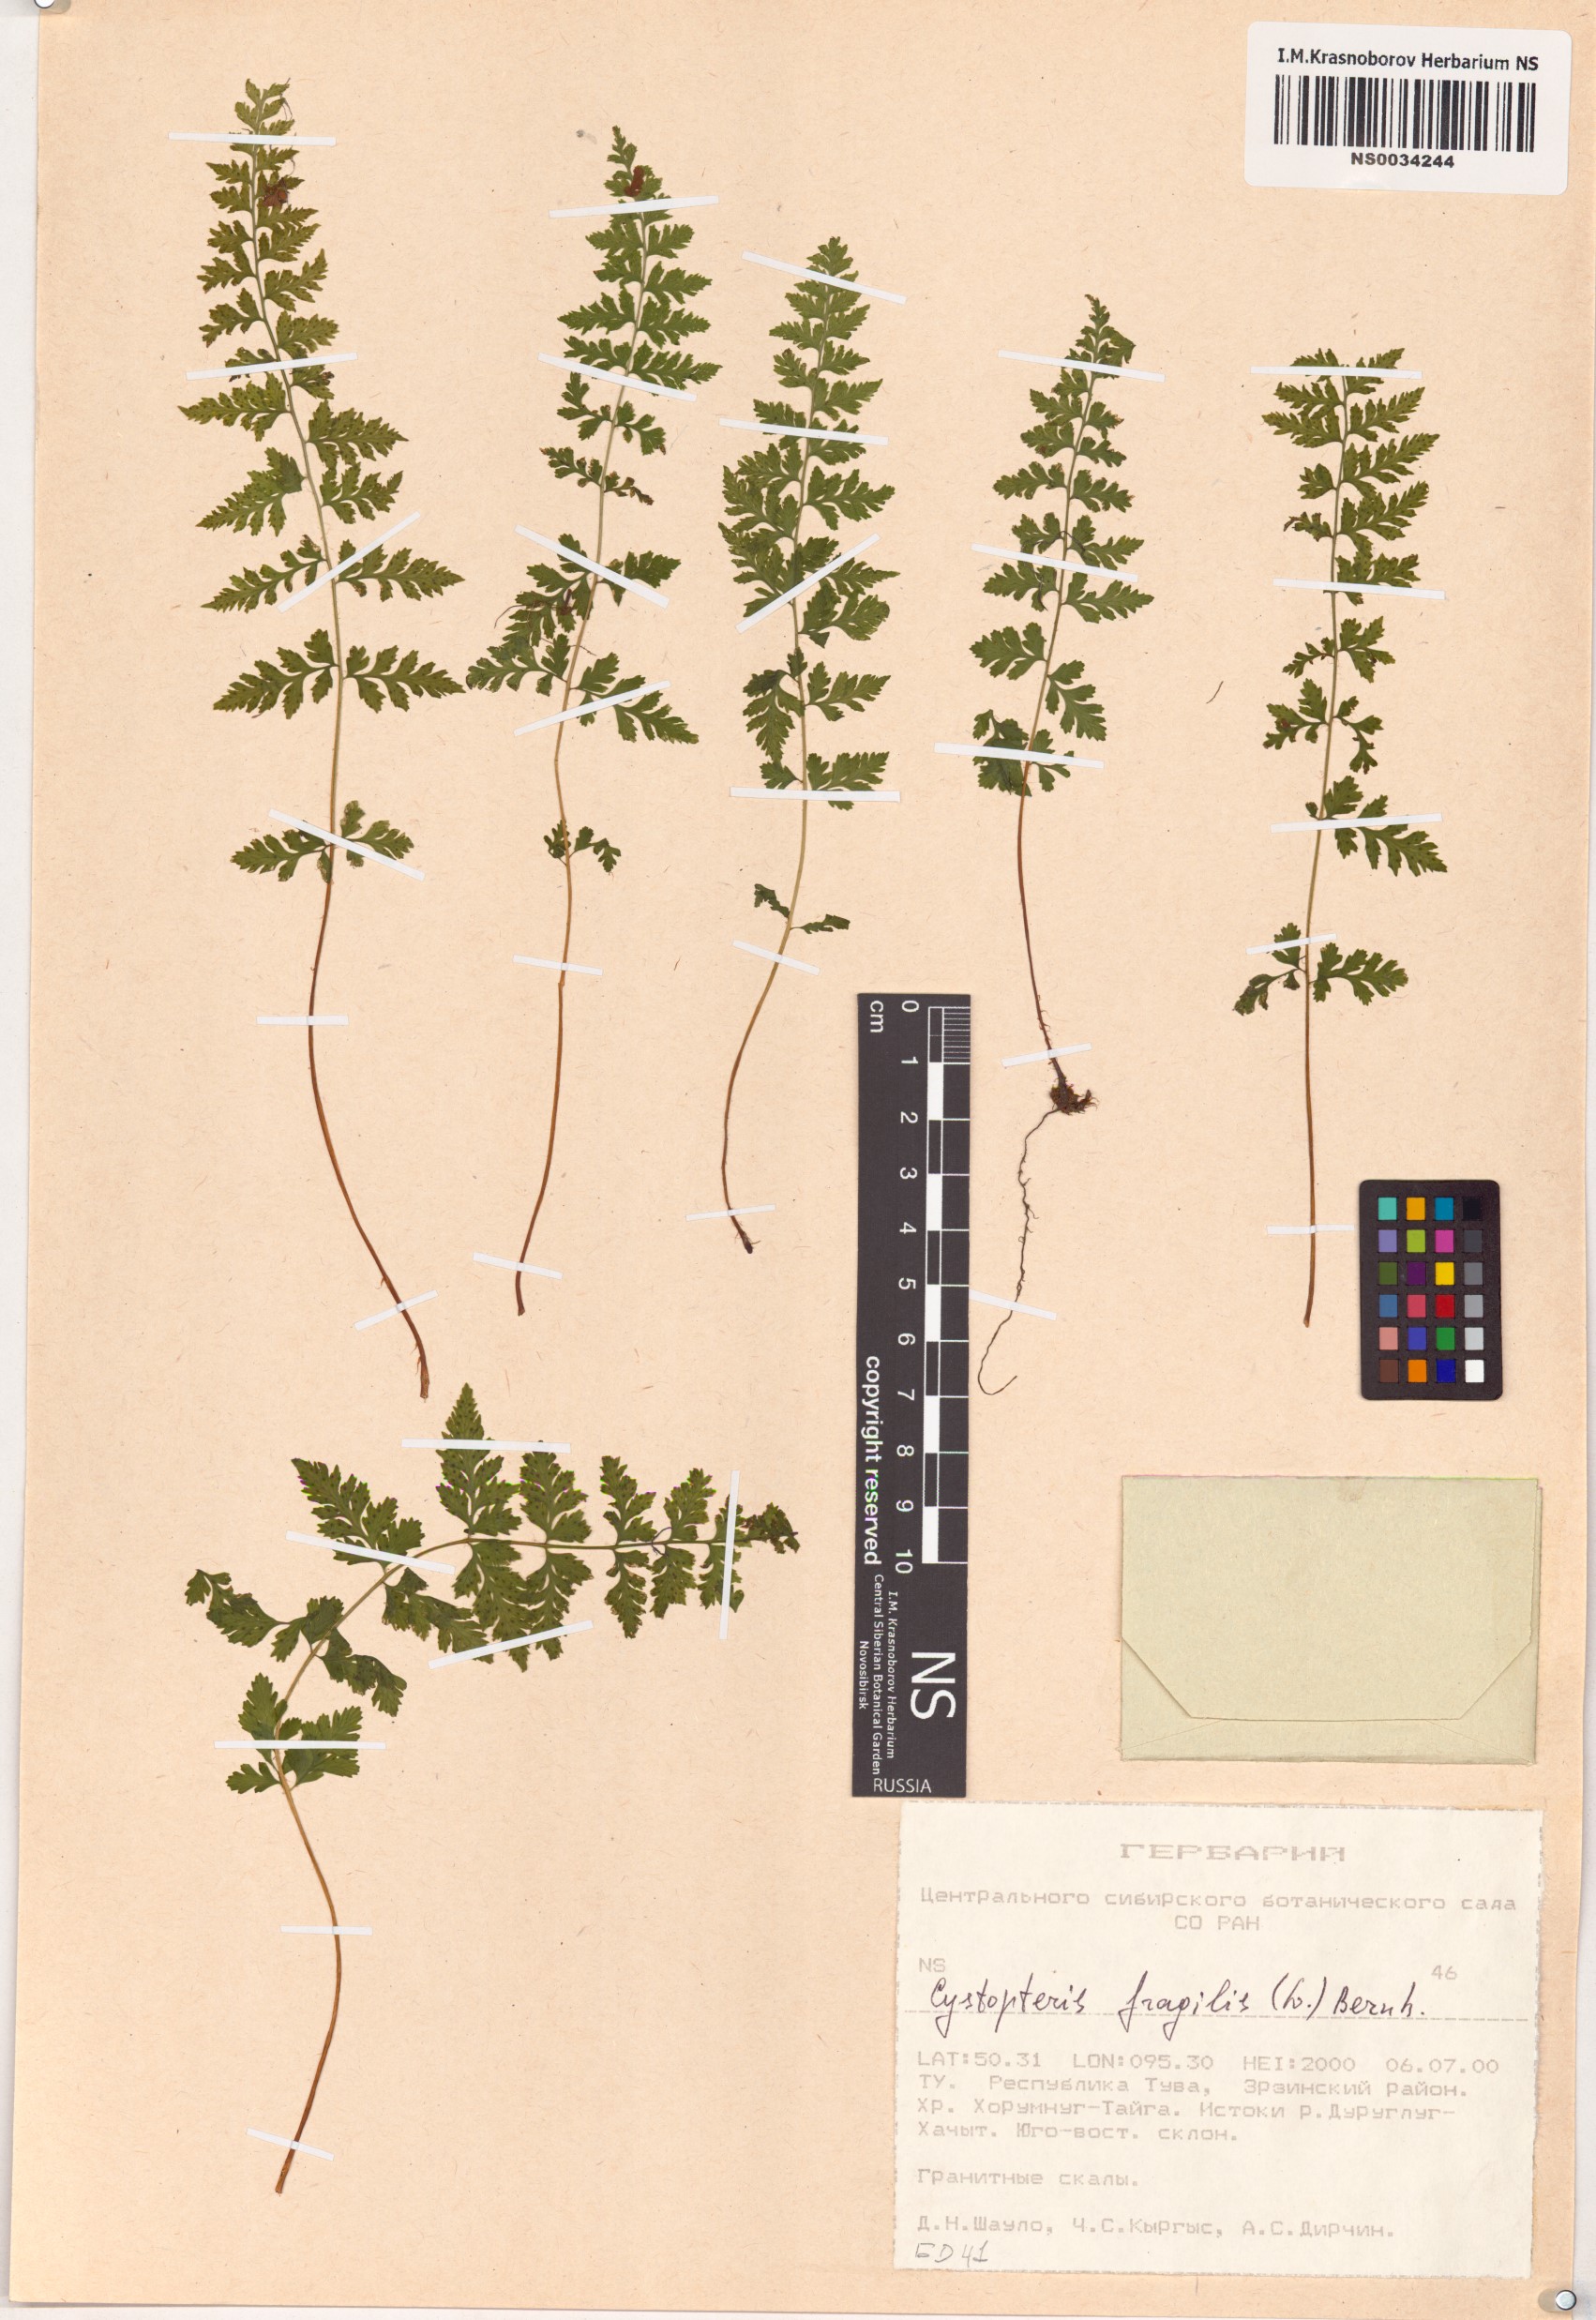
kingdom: Plantae
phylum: Tracheophyta
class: Polypodiopsida
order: Polypodiales
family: Cystopteridaceae
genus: Cystopteris
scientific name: Cystopteris fragilis
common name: Brittle bladder fern
